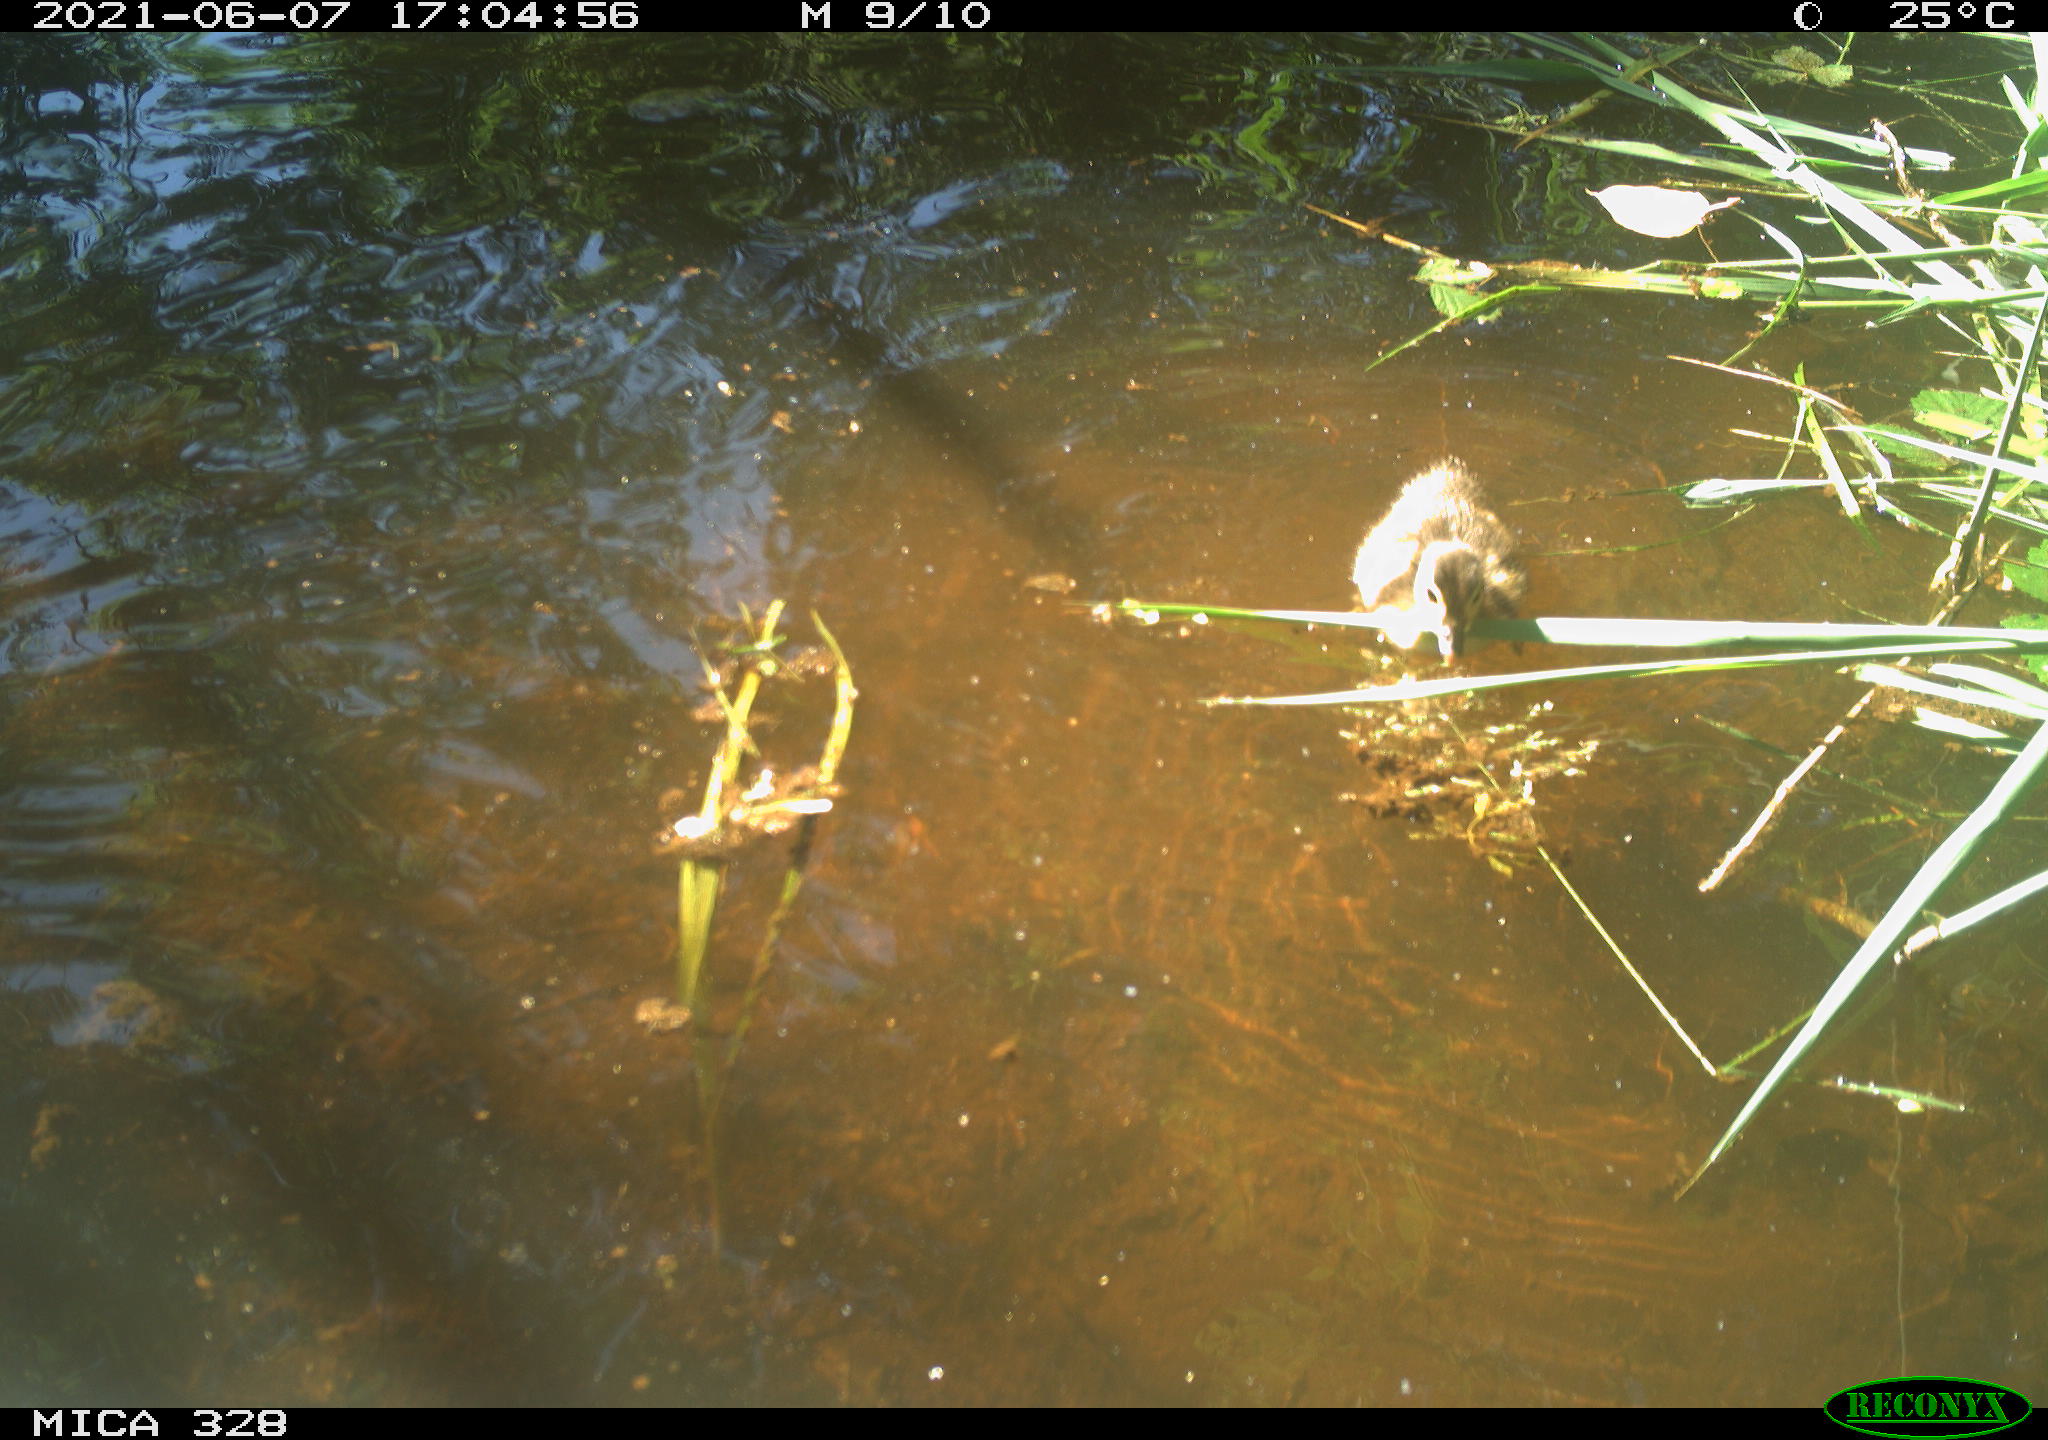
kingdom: Animalia
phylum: Chordata
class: Aves
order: Anseriformes
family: Anatidae
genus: Aix
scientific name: Aix galericulata
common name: Mandarin duck
